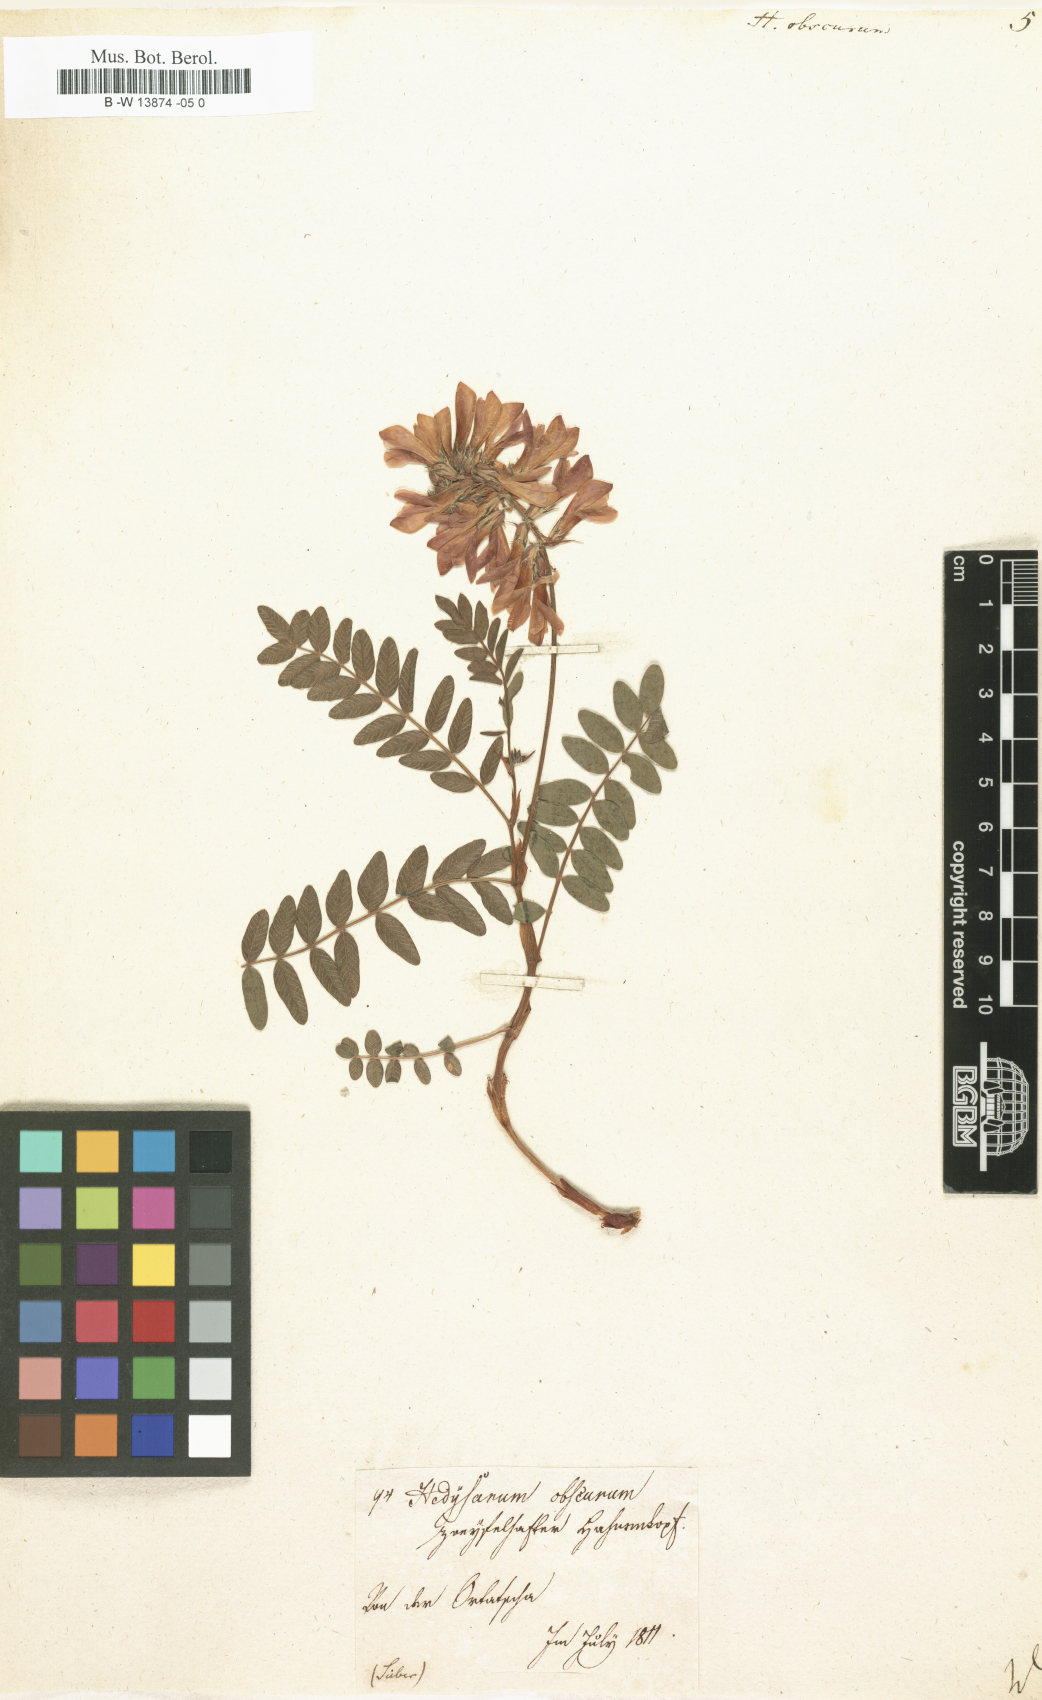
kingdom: Plantae
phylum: Tracheophyta
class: Magnoliopsida
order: Fabales
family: Fabaceae
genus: Hedysarum
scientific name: Hedysarum hedysaroides
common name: Alpine french-honeysuckle
